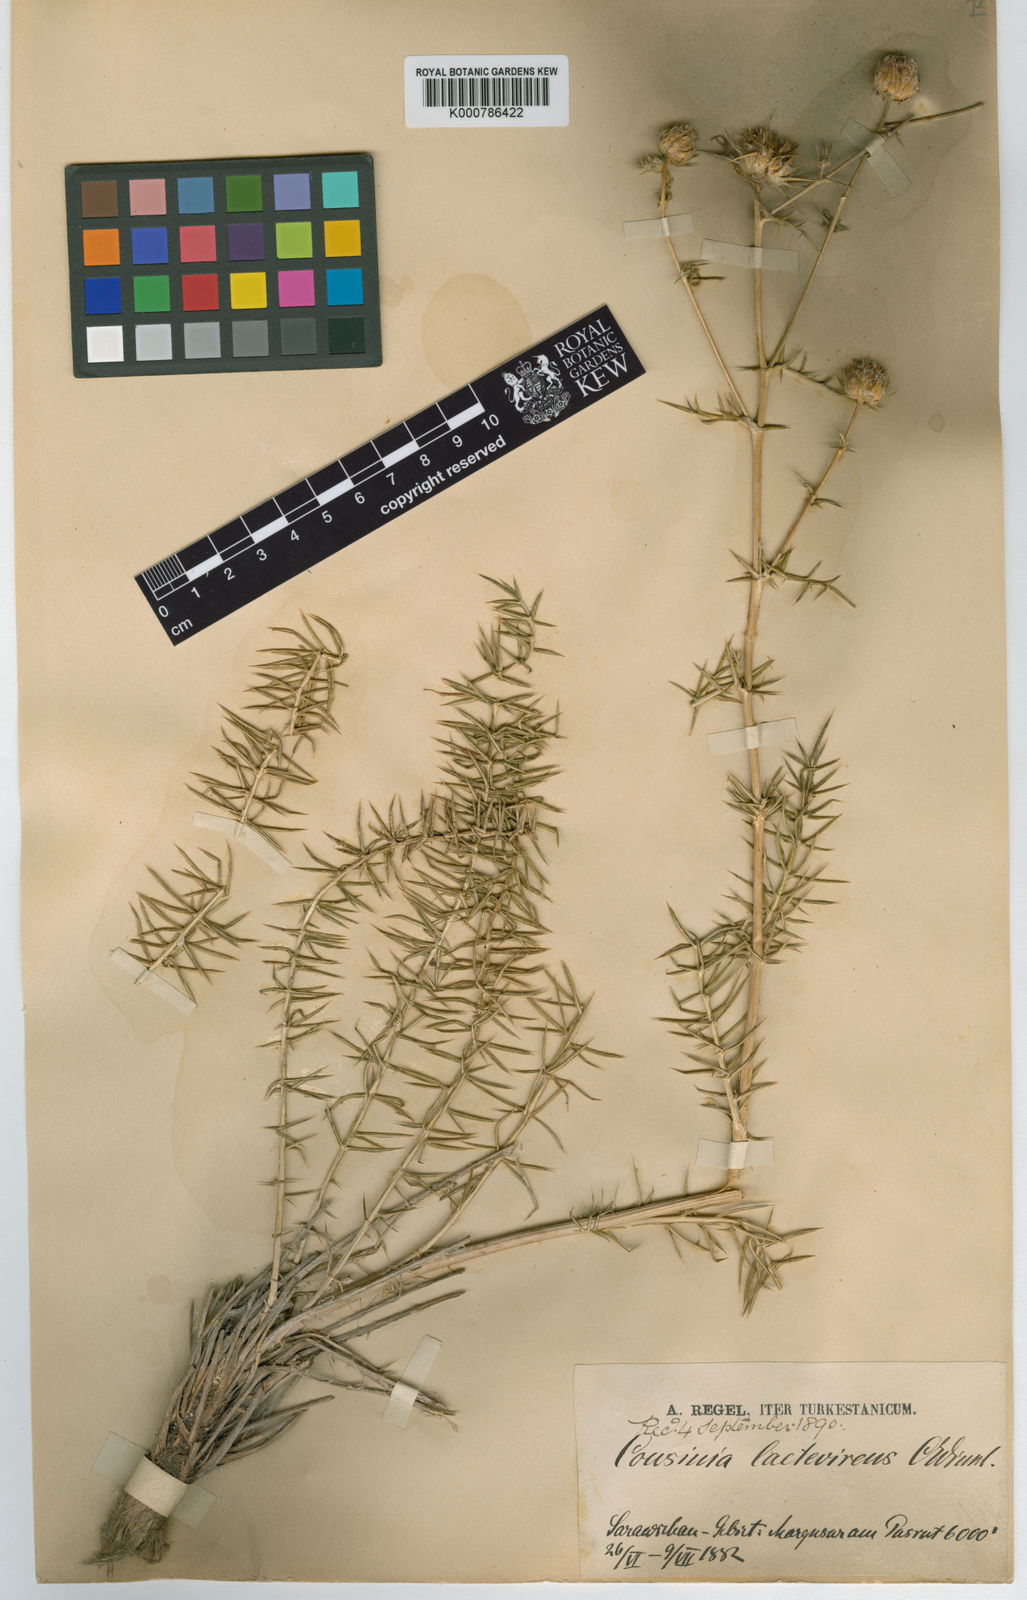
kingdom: Plantae
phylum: Tracheophyta
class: Magnoliopsida
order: Asterales
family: Asteraceae
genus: Cousinia
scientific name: Cousinia laetevirens
